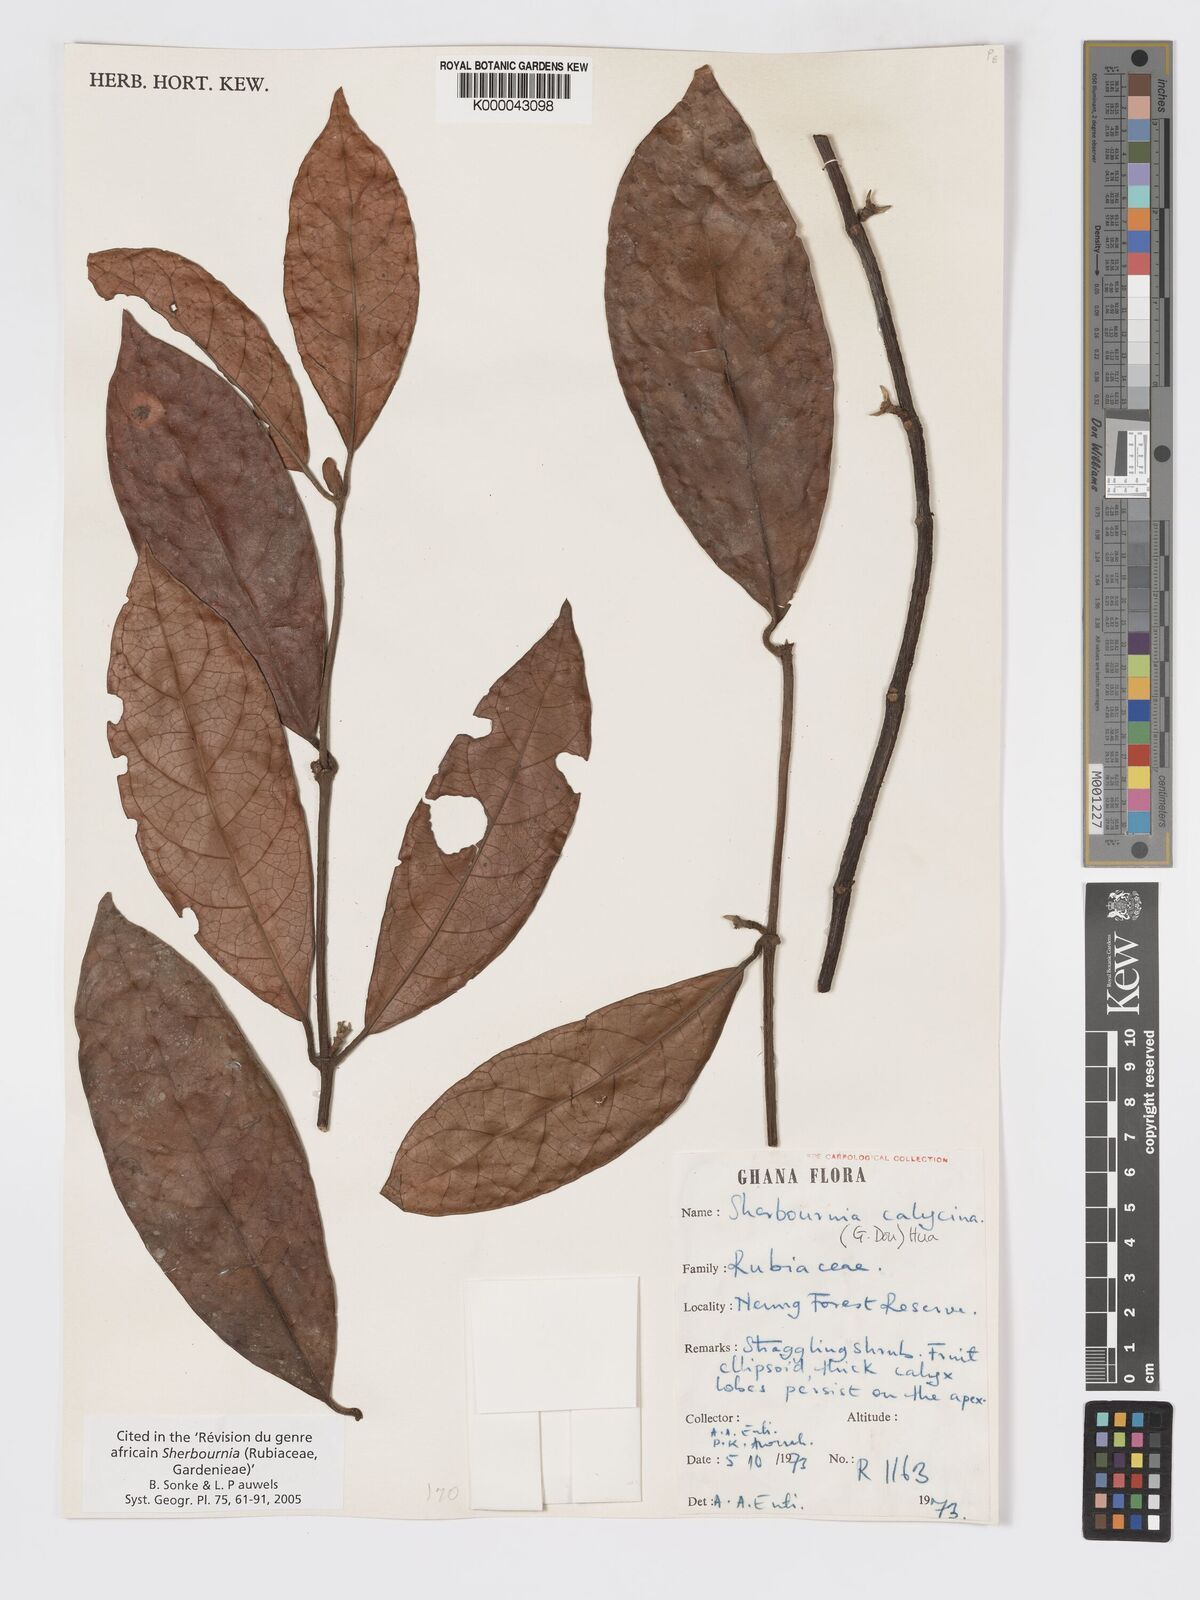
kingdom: Plantae
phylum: Tracheophyta
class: Magnoliopsida
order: Gentianales
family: Rubiaceae
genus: Sherbournia
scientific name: Sherbournia calycina
